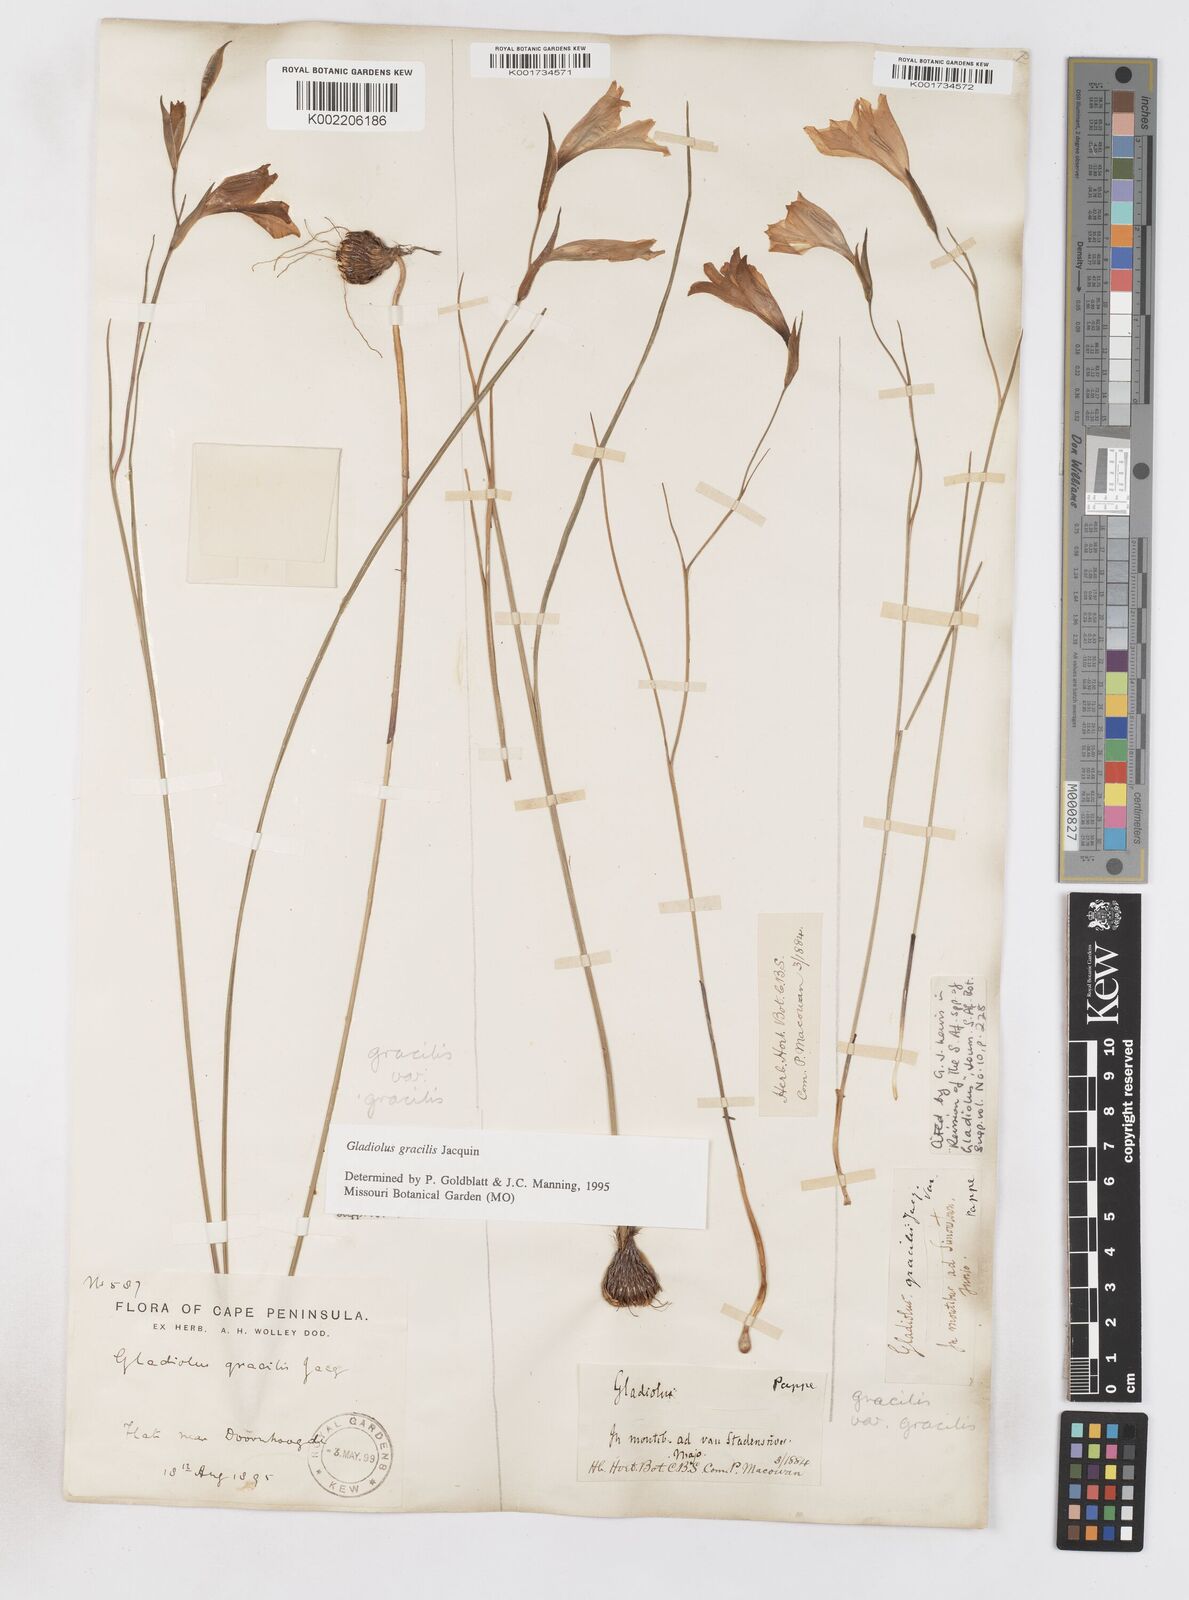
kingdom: Plantae
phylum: Tracheophyta
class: Liliopsida
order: Asparagales
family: Iridaceae
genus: Gladiolus
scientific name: Gladiolus gracilis
